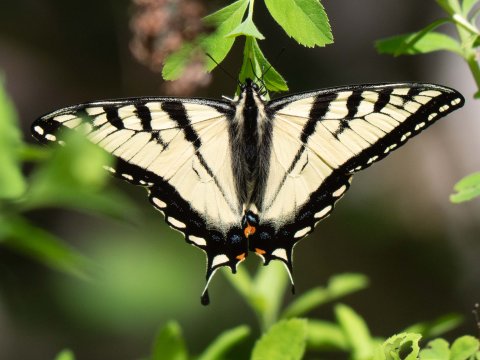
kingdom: Animalia
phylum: Arthropoda
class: Insecta
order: Lepidoptera
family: Papilionidae
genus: Pterourus
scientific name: Pterourus
